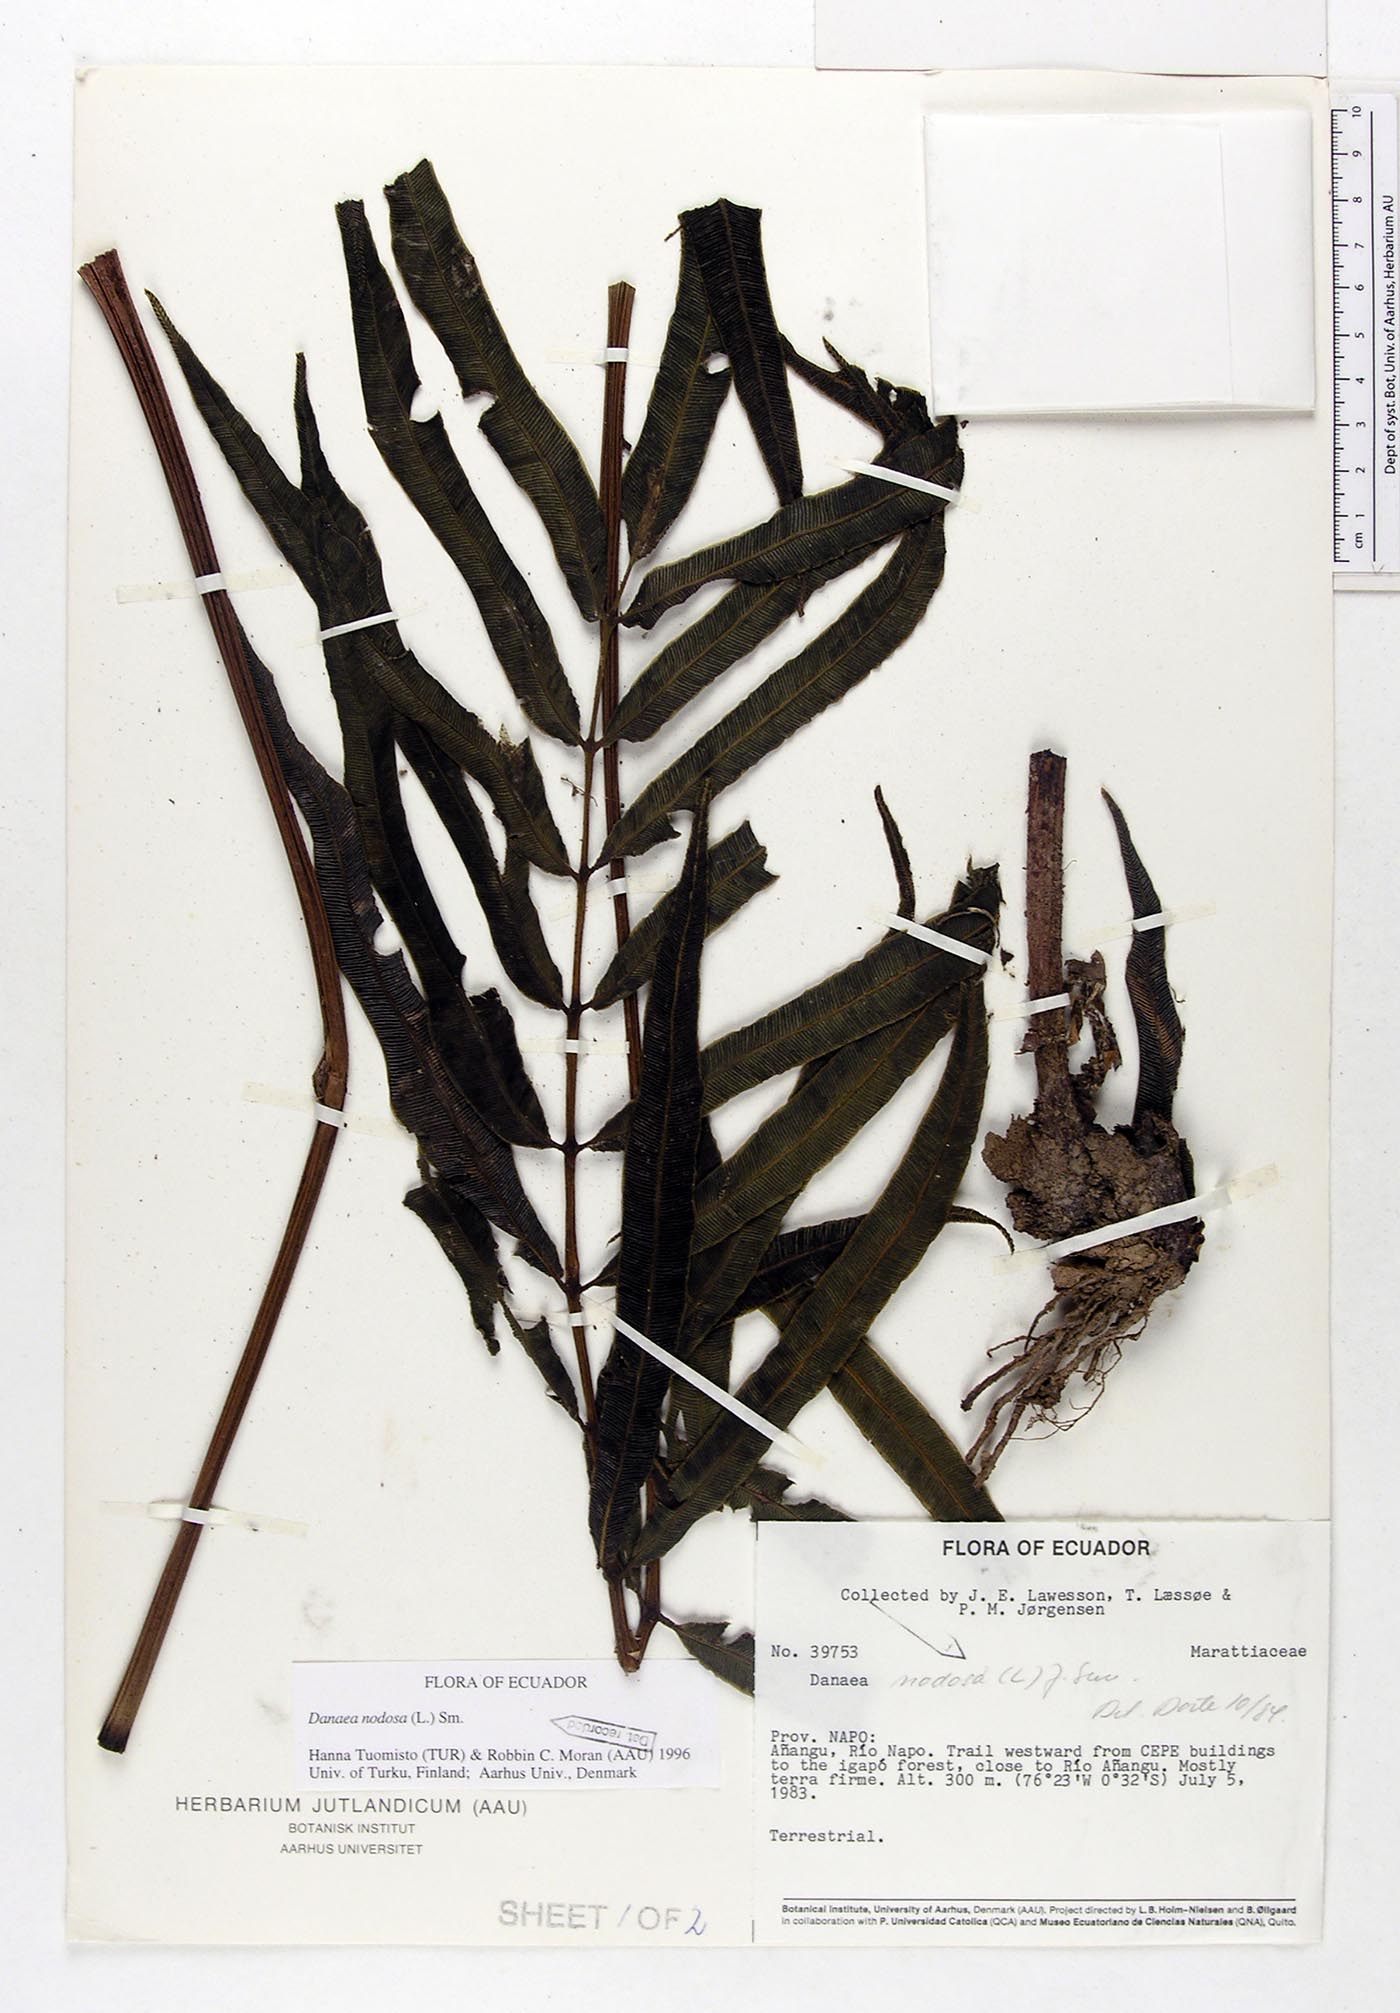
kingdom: Plantae
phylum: Tracheophyta
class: Polypodiopsida
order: Marattiales
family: Marattiaceae
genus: Danaea
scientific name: Danaea nodosa
